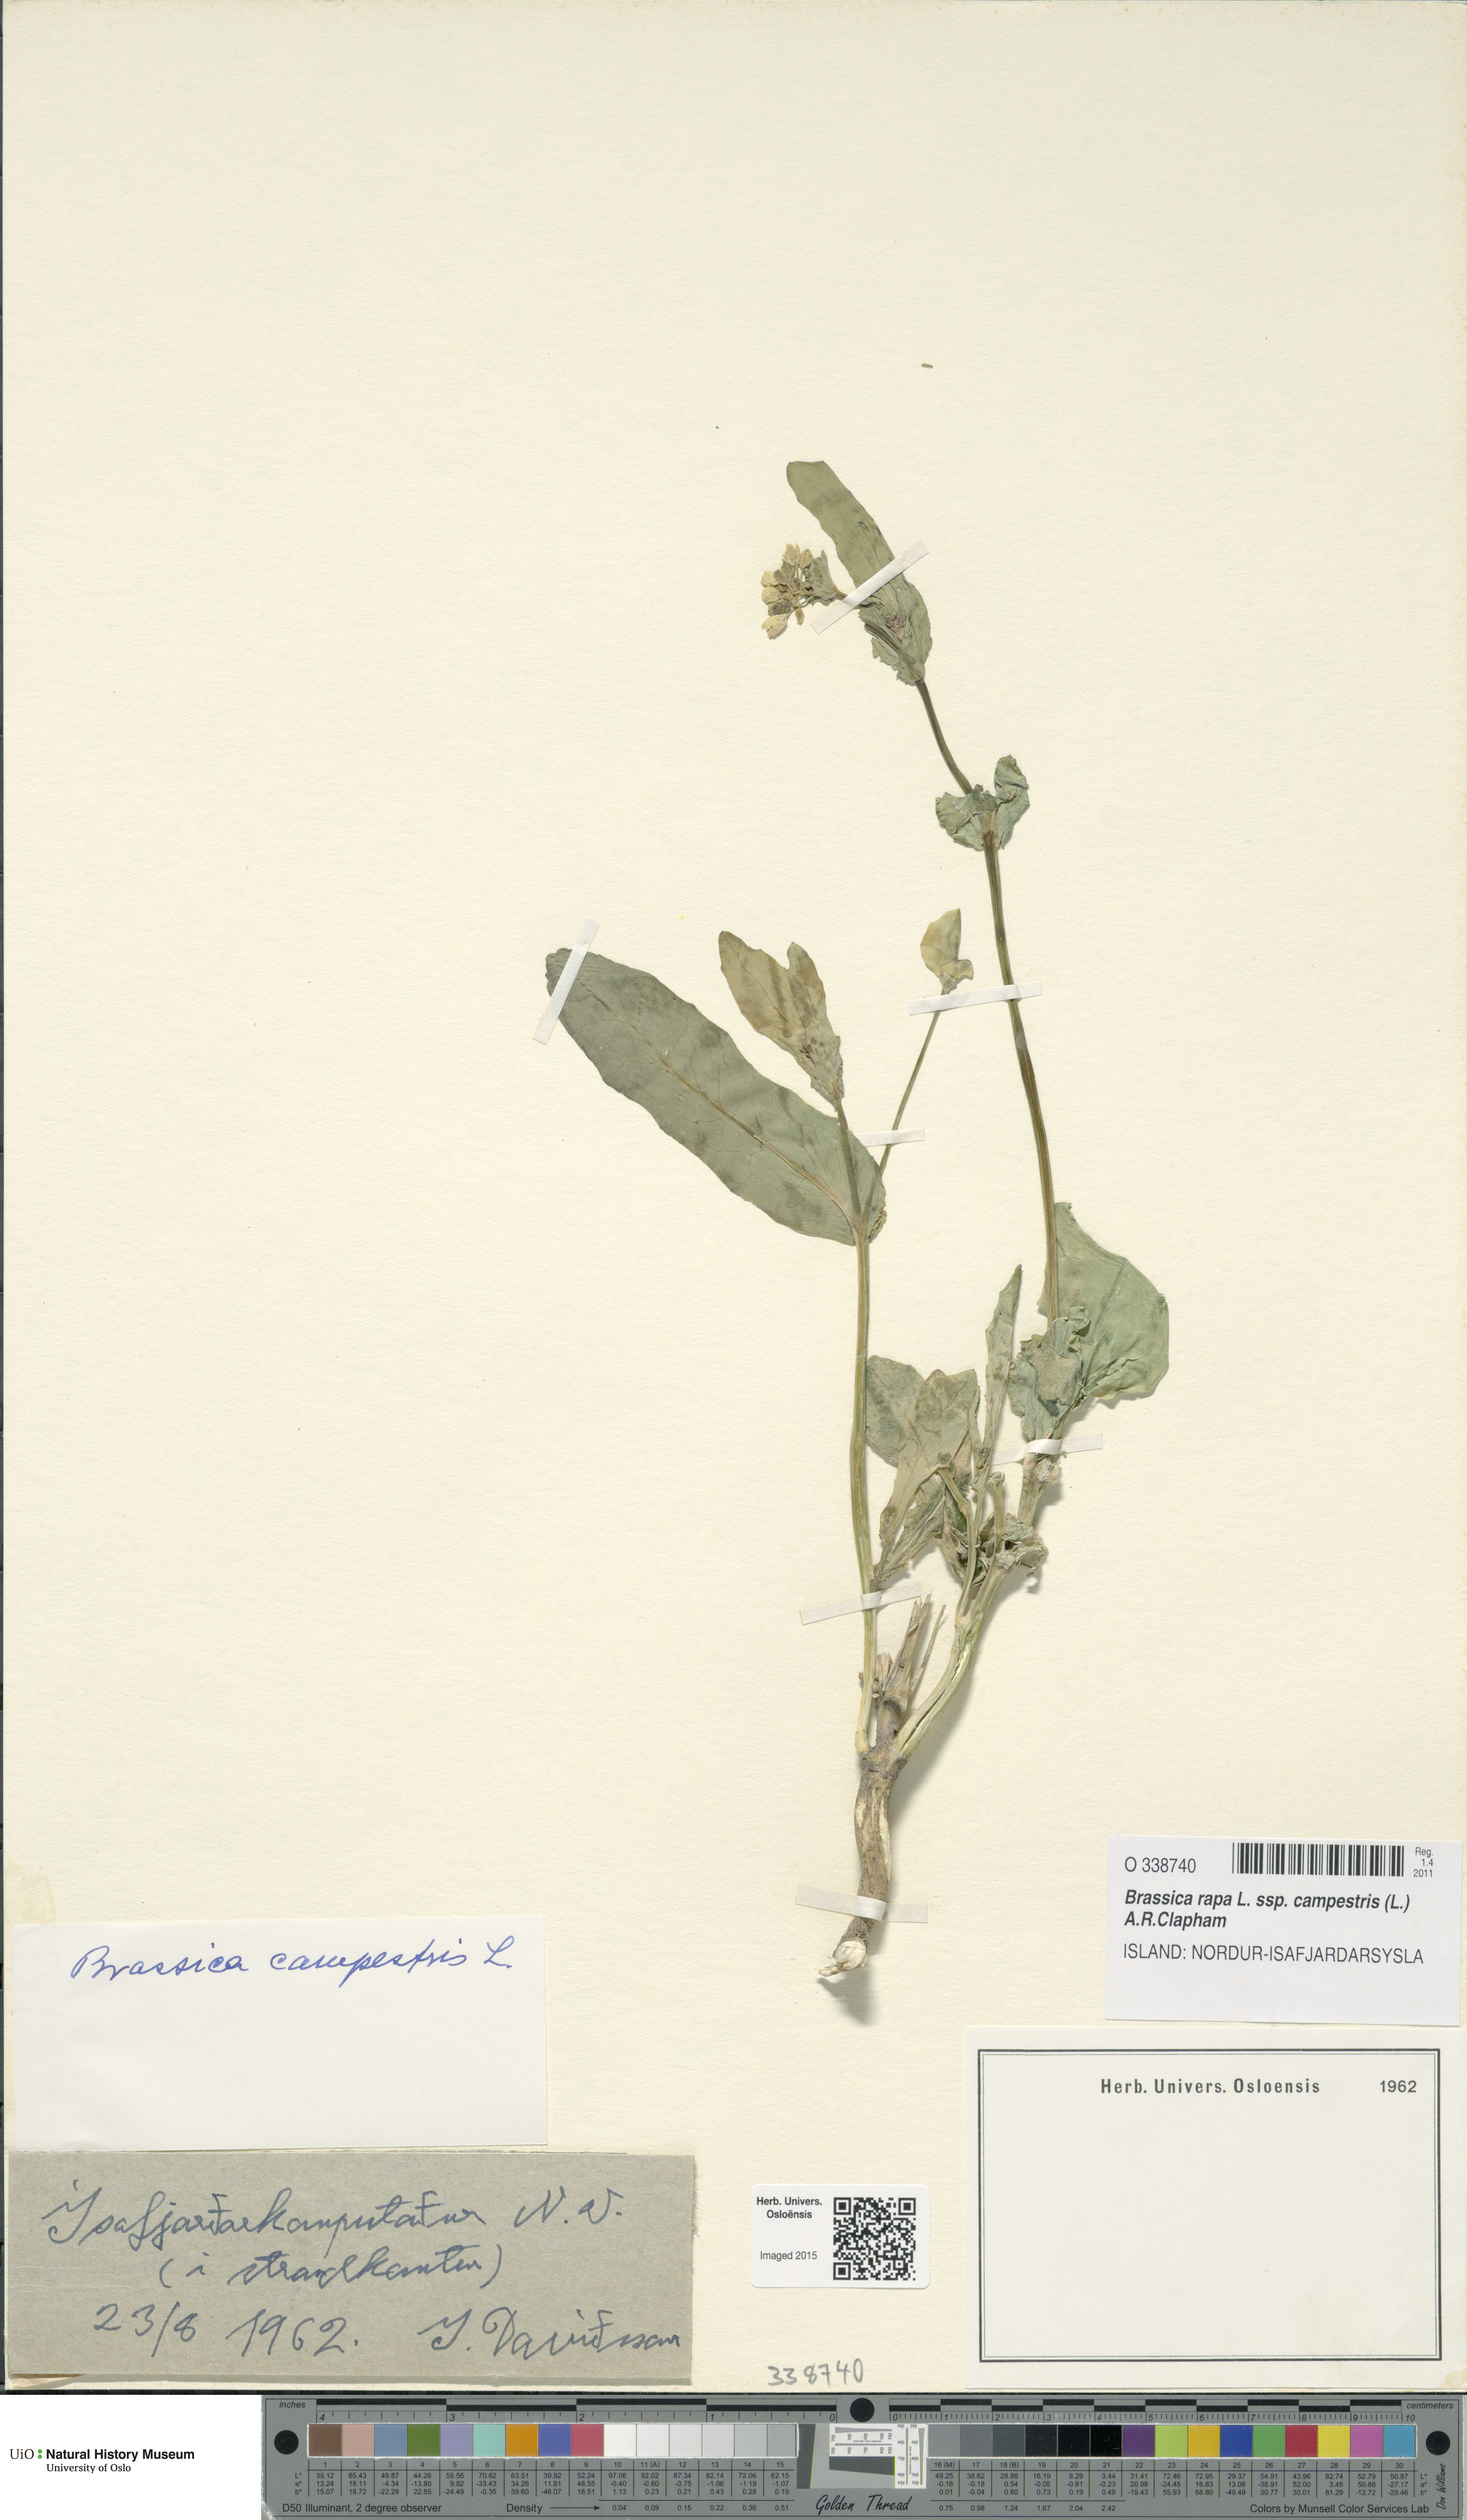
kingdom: Plantae
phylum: Tracheophyta
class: Magnoliopsida
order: Brassicales
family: Brassicaceae
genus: Brassica
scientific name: Brassica rapa
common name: Field mustard
